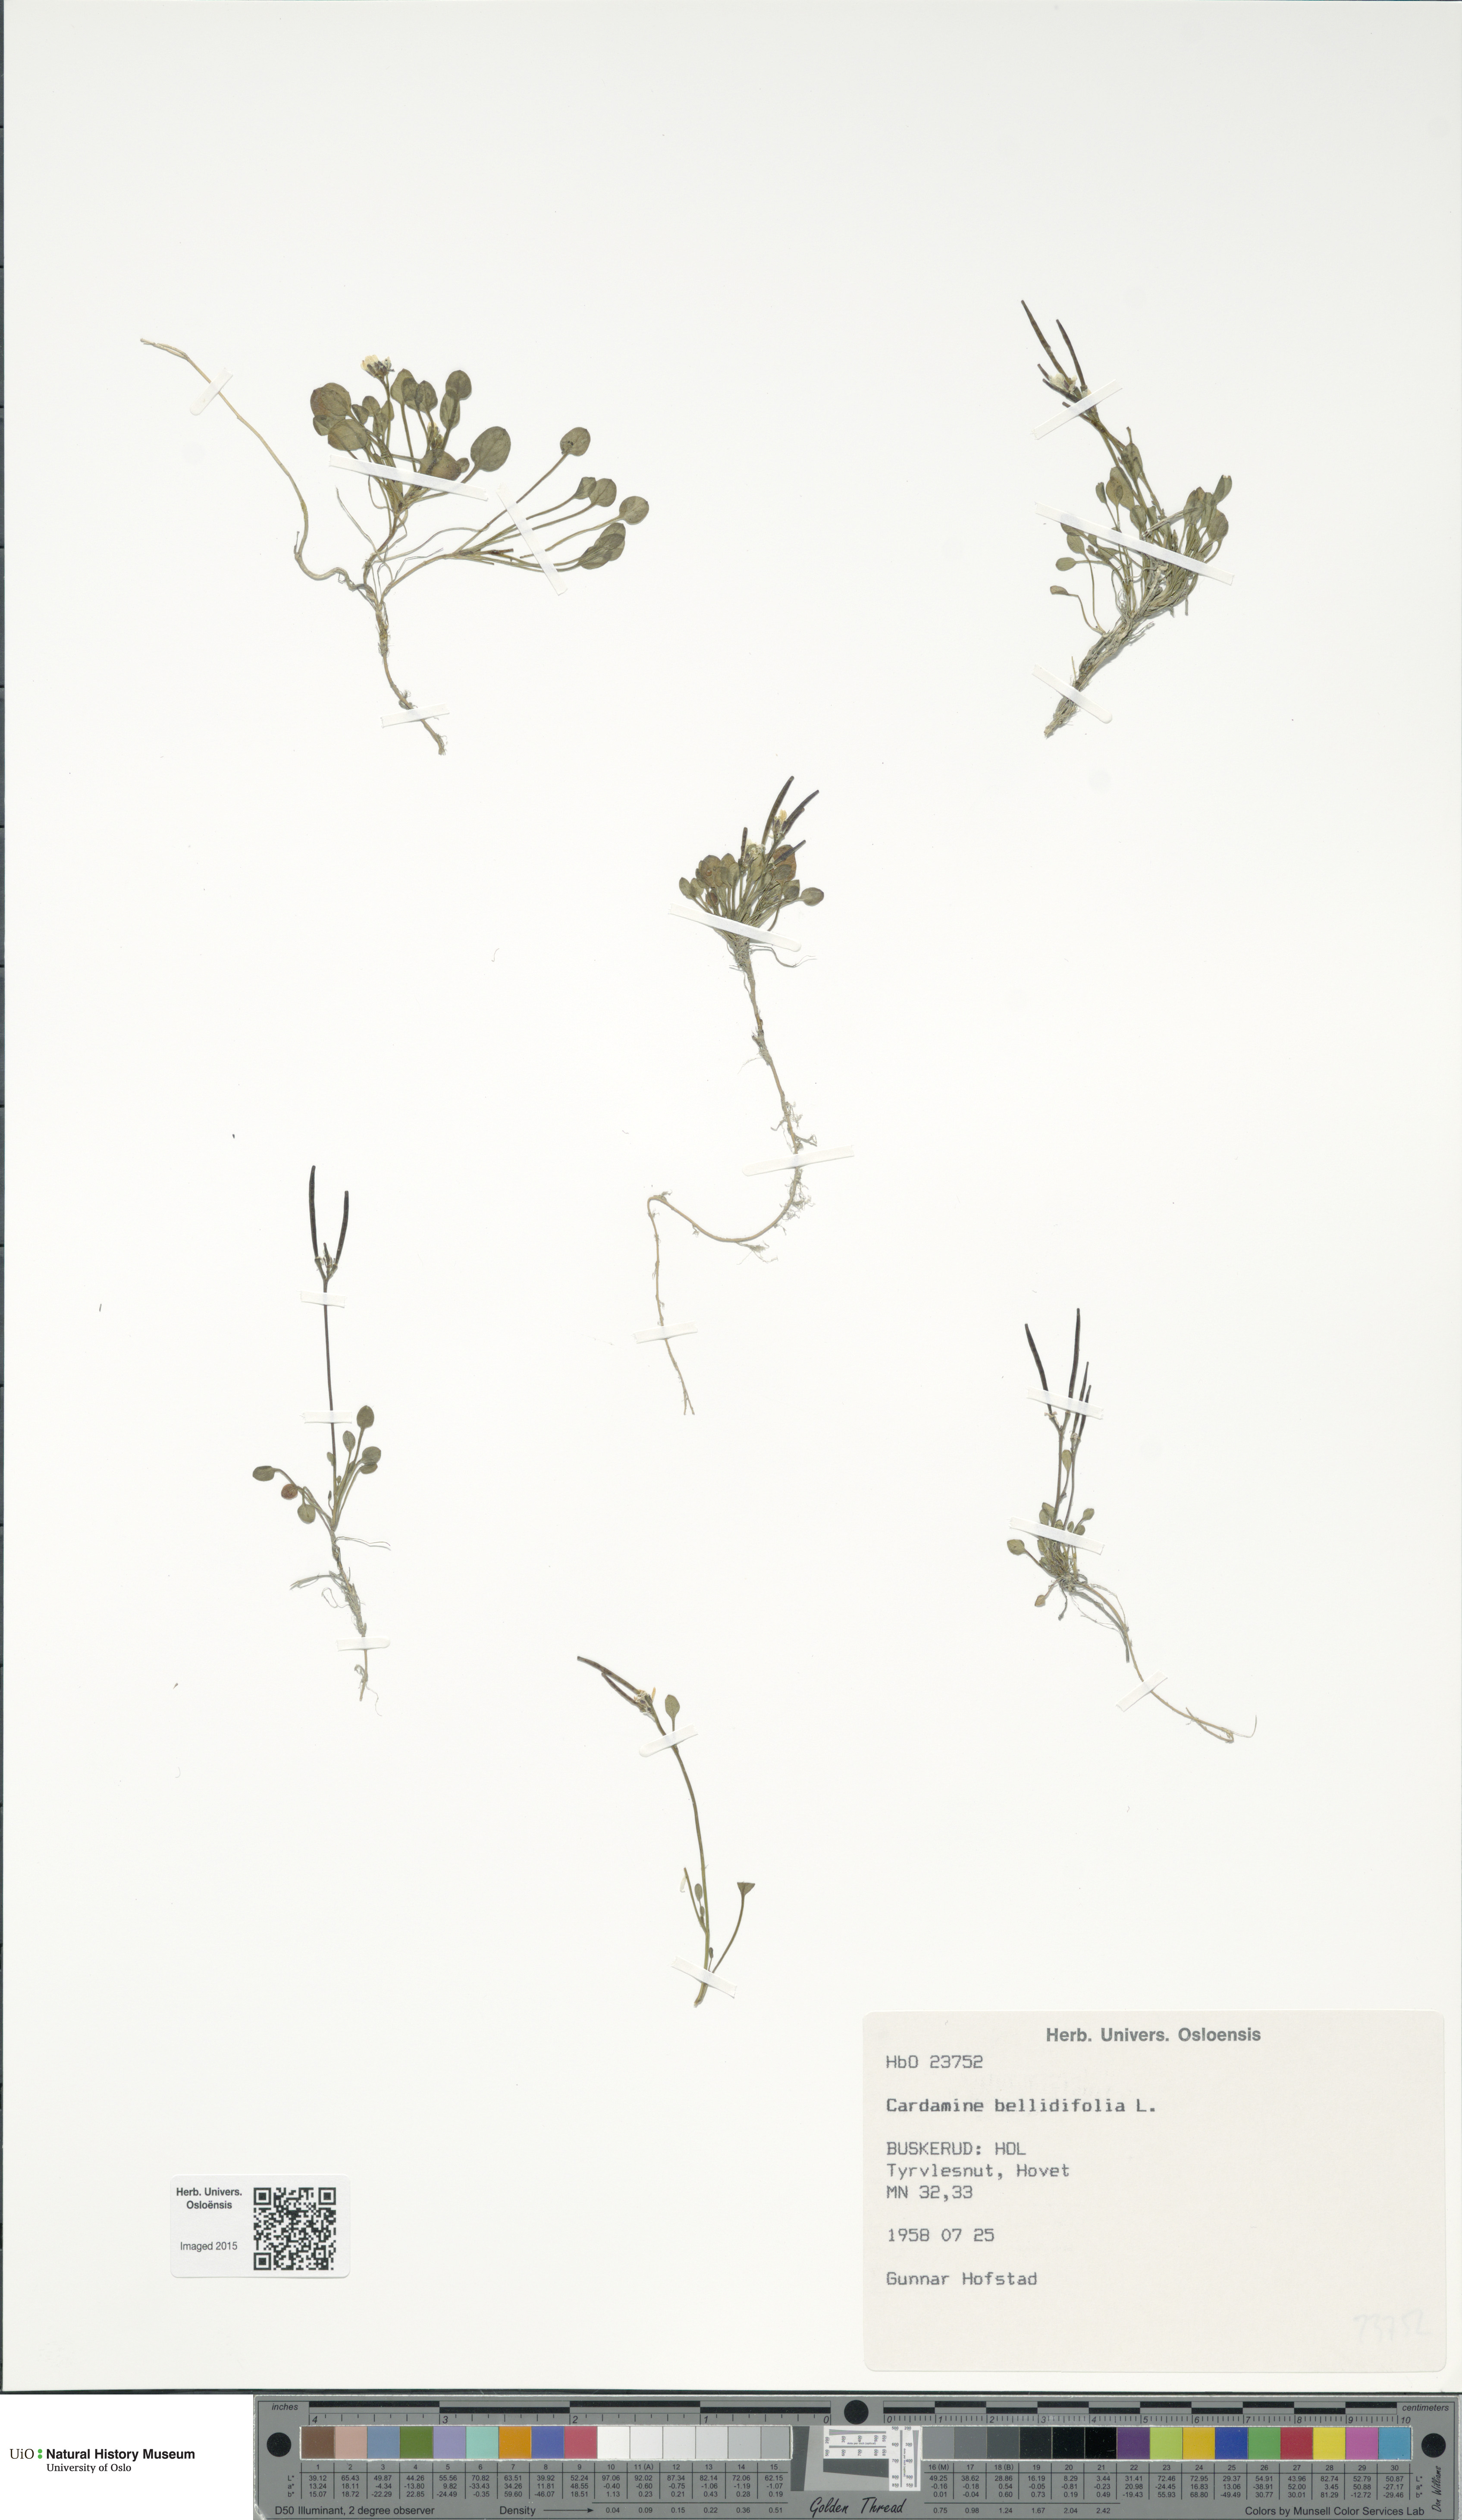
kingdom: Plantae
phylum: Tracheophyta
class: Magnoliopsida
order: Brassicales
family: Brassicaceae
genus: Cardamine
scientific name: Cardamine bellidifolia
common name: Alpine bittercress
